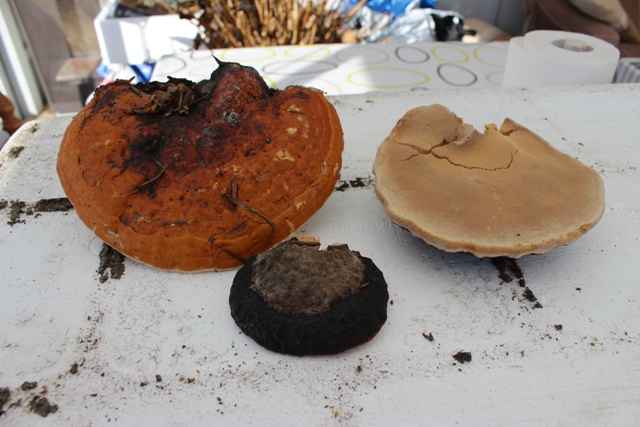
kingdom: Fungi
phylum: Basidiomycota
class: Agaricomycetes
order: Polyporales
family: Fomitopsidaceae
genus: Fomitopsis
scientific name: Fomitopsis pinicola
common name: randbæltet hovporesvamp
